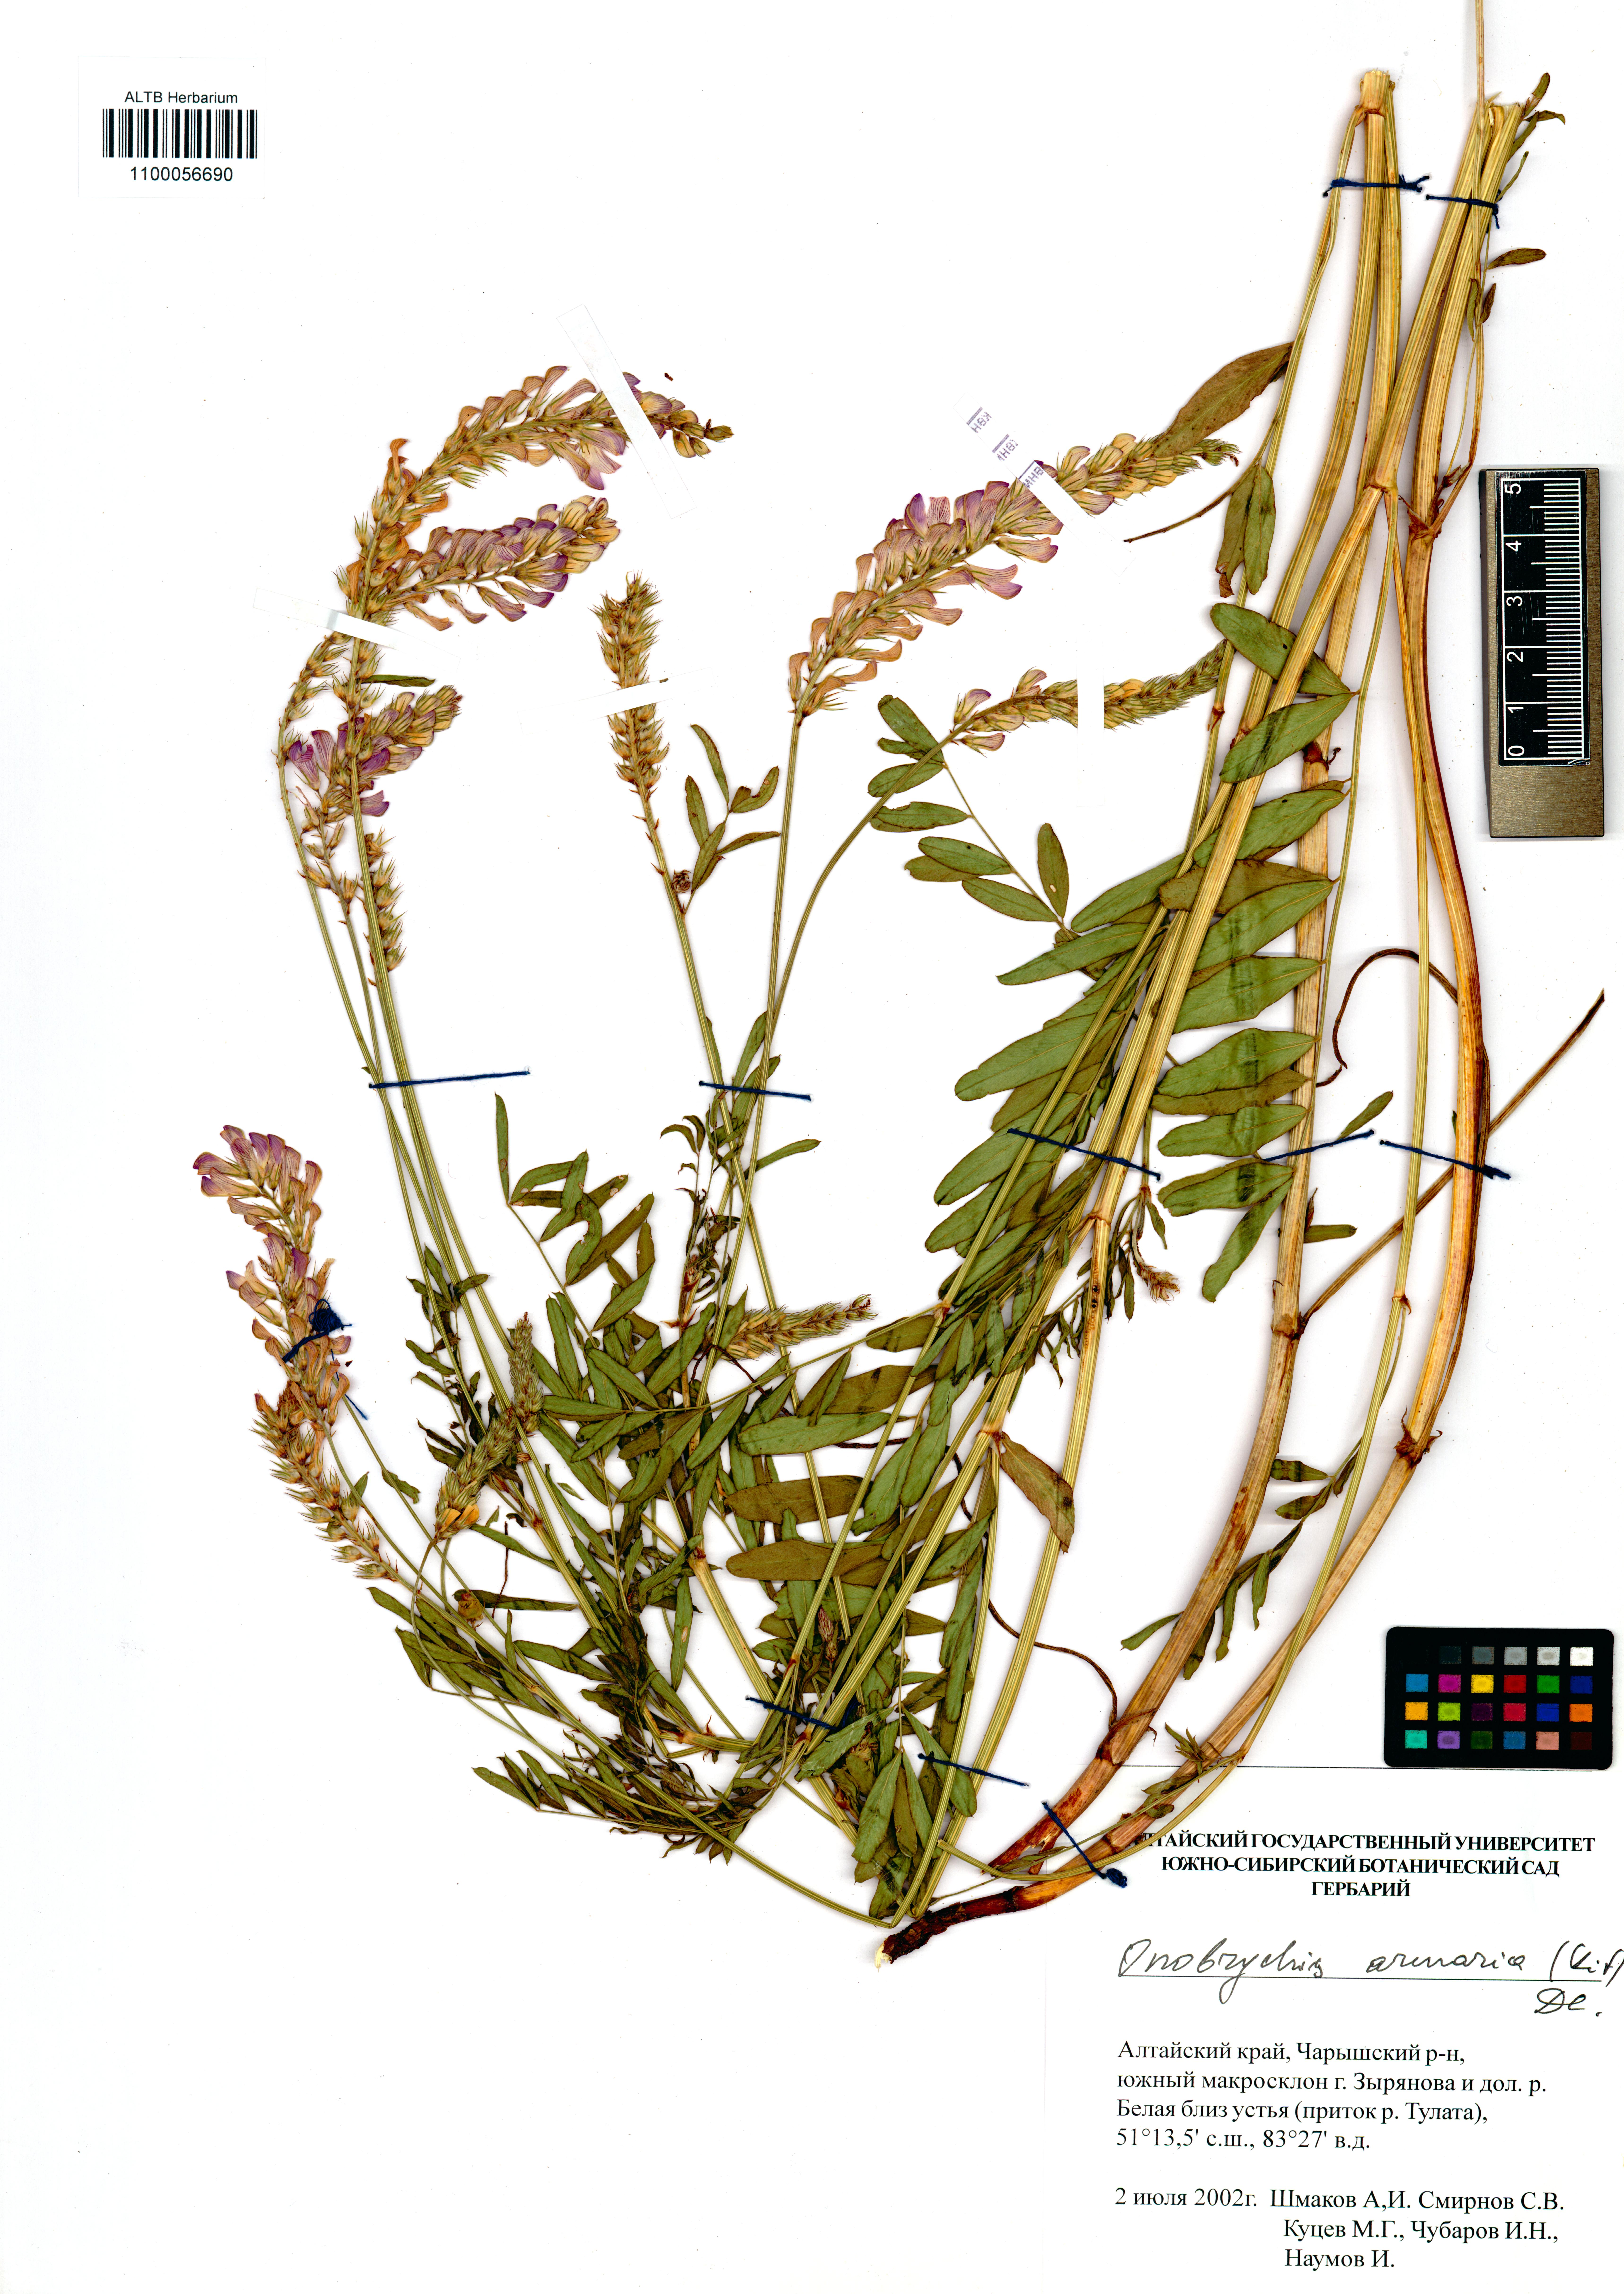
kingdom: Plantae
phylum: Tracheophyta
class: Magnoliopsida
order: Fabales
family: Fabaceae
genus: Onobrychis
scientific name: Onobrychis arenaria
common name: Sand esparcet
